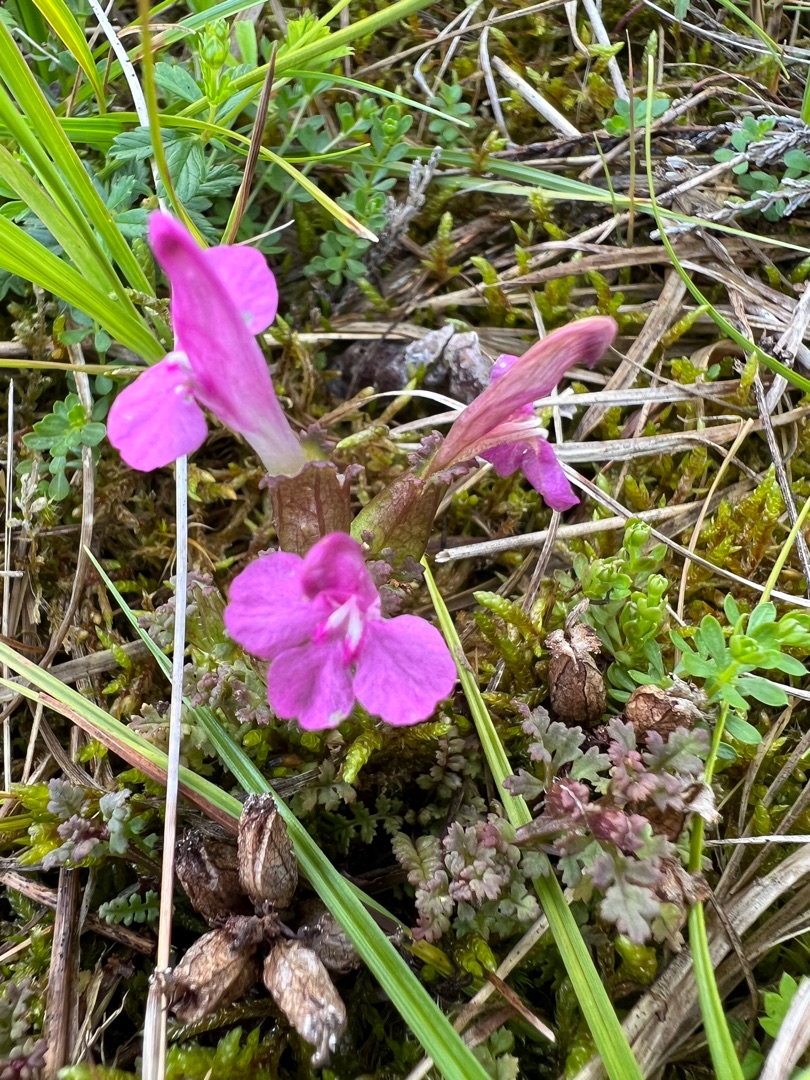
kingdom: Plantae
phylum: Tracheophyta
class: Magnoliopsida
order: Lamiales
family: Orobanchaceae
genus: Pedicularis
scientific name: Pedicularis sylvatica
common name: Mose-troldurt
